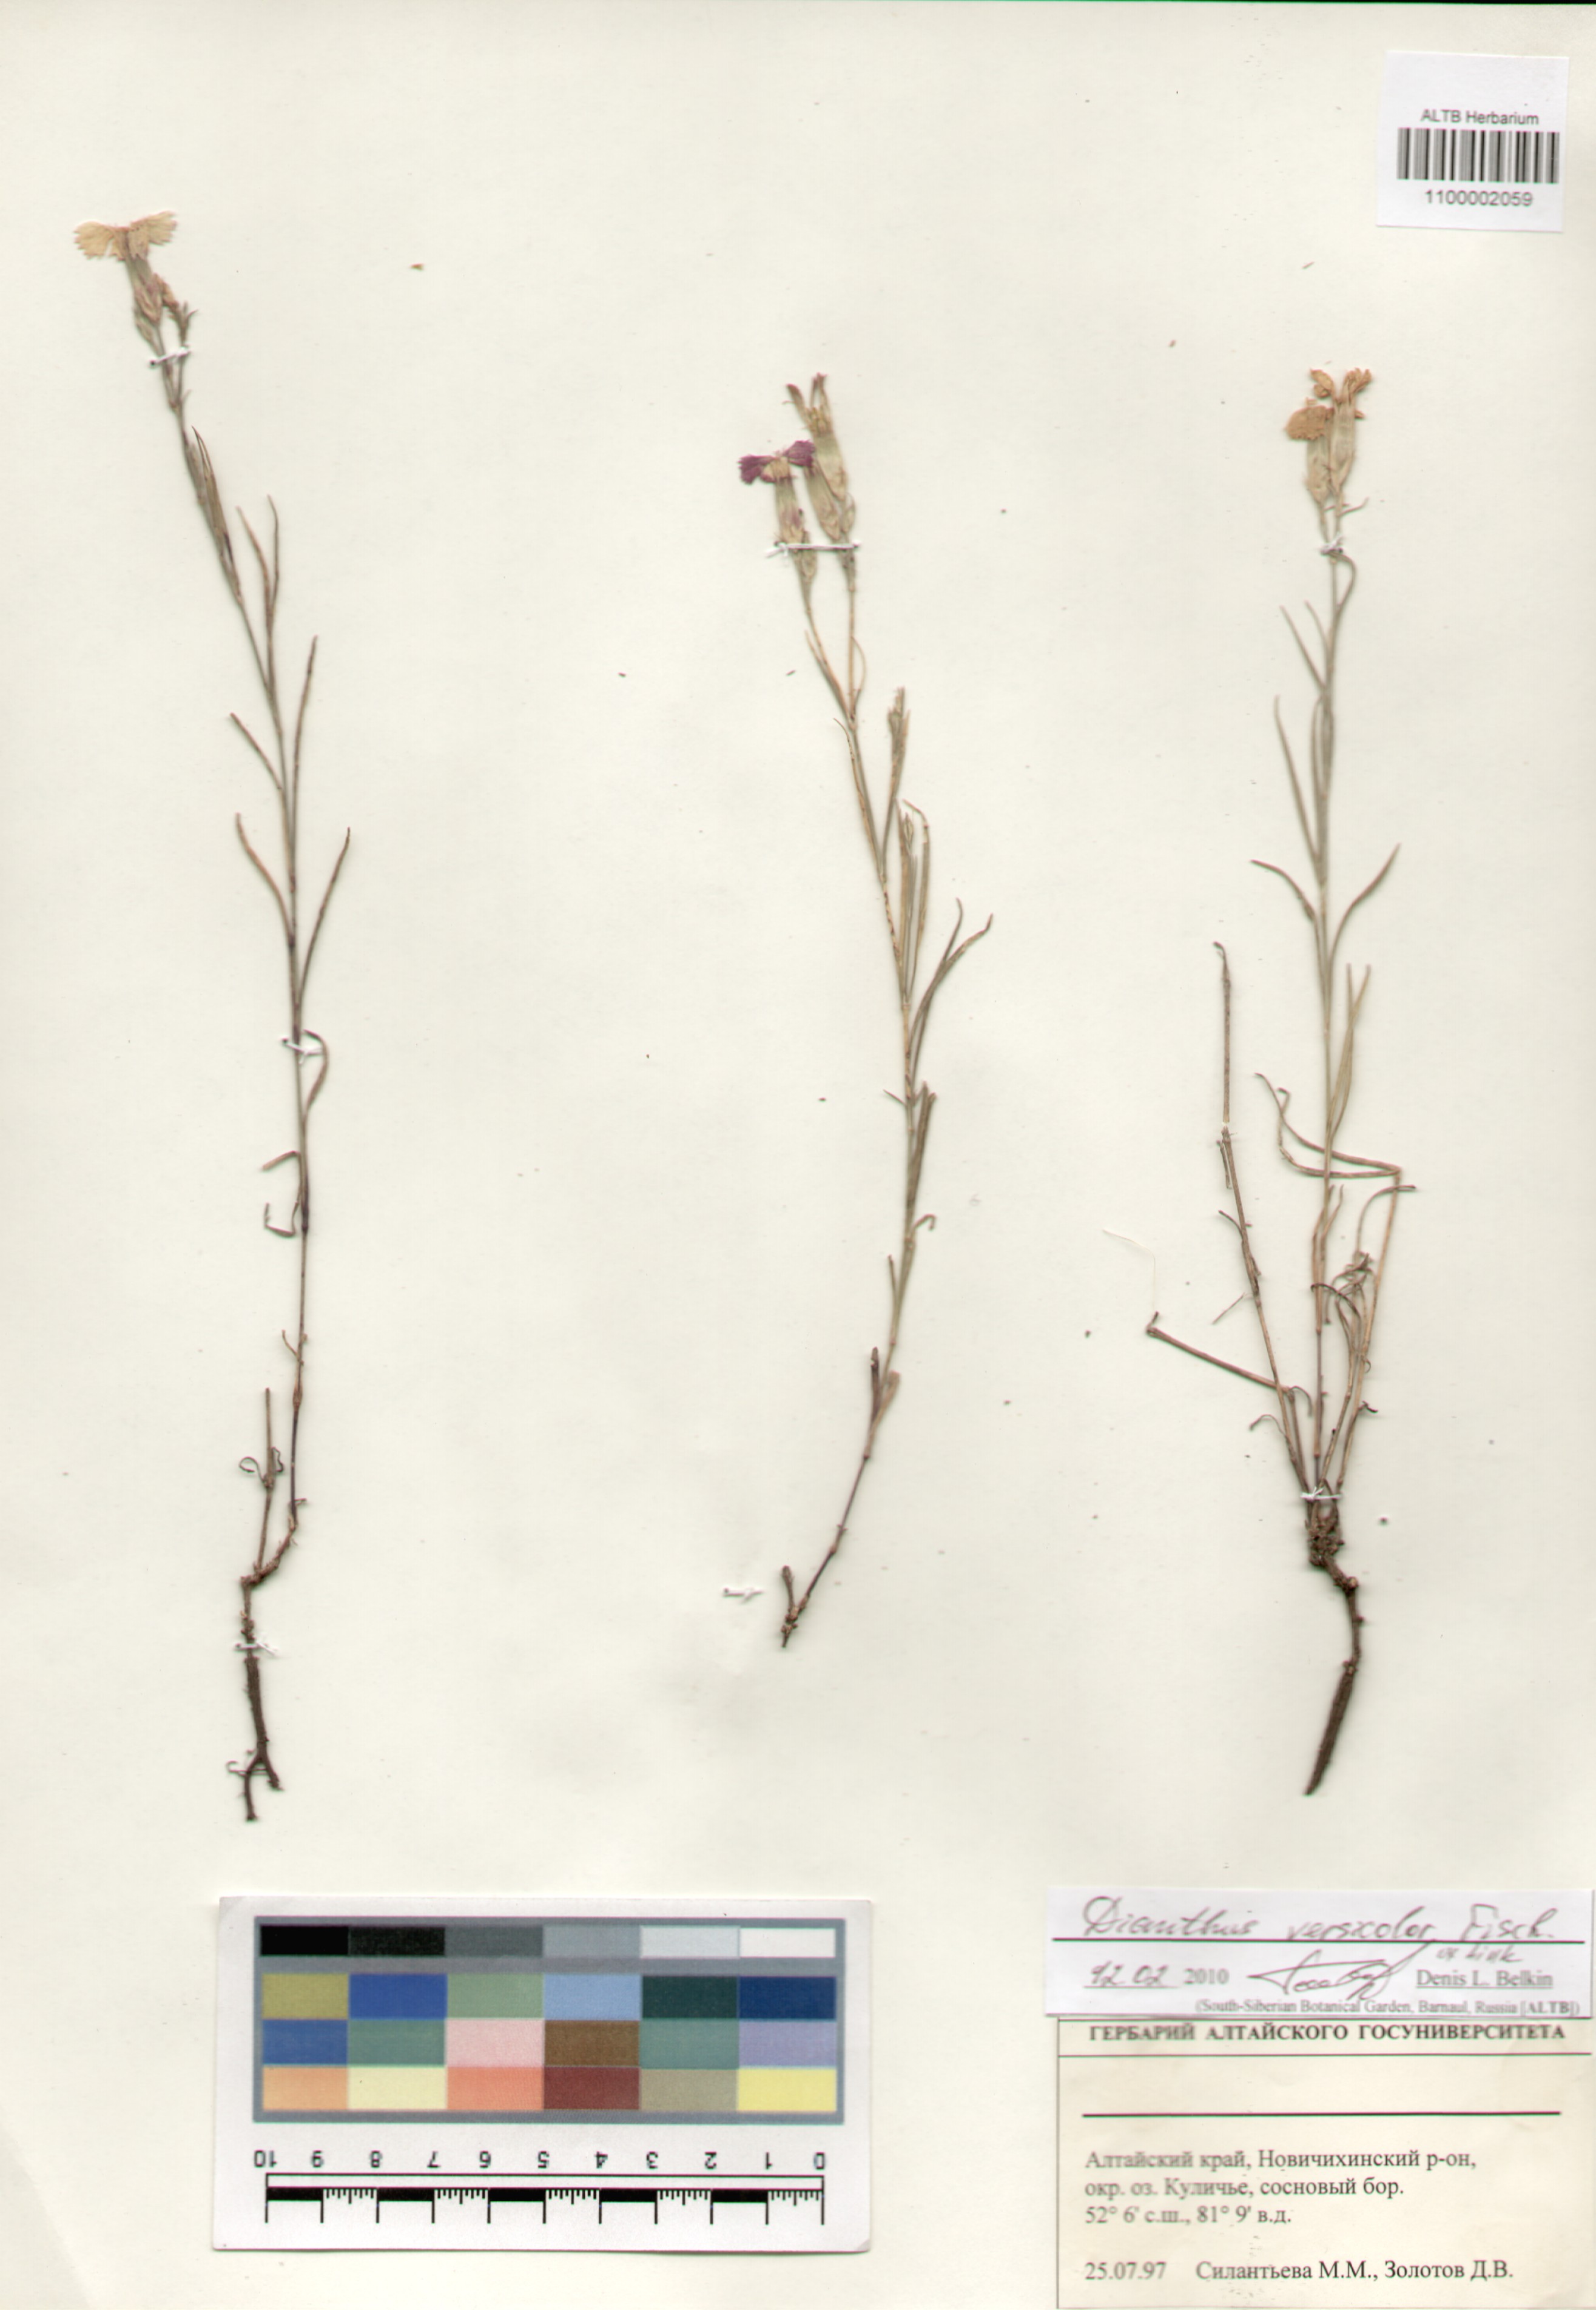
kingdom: Plantae
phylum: Tracheophyta
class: Magnoliopsida
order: Caryophyllales
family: Caryophyllaceae
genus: Dianthus
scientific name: Dianthus chinensis
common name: Rainbow pink
